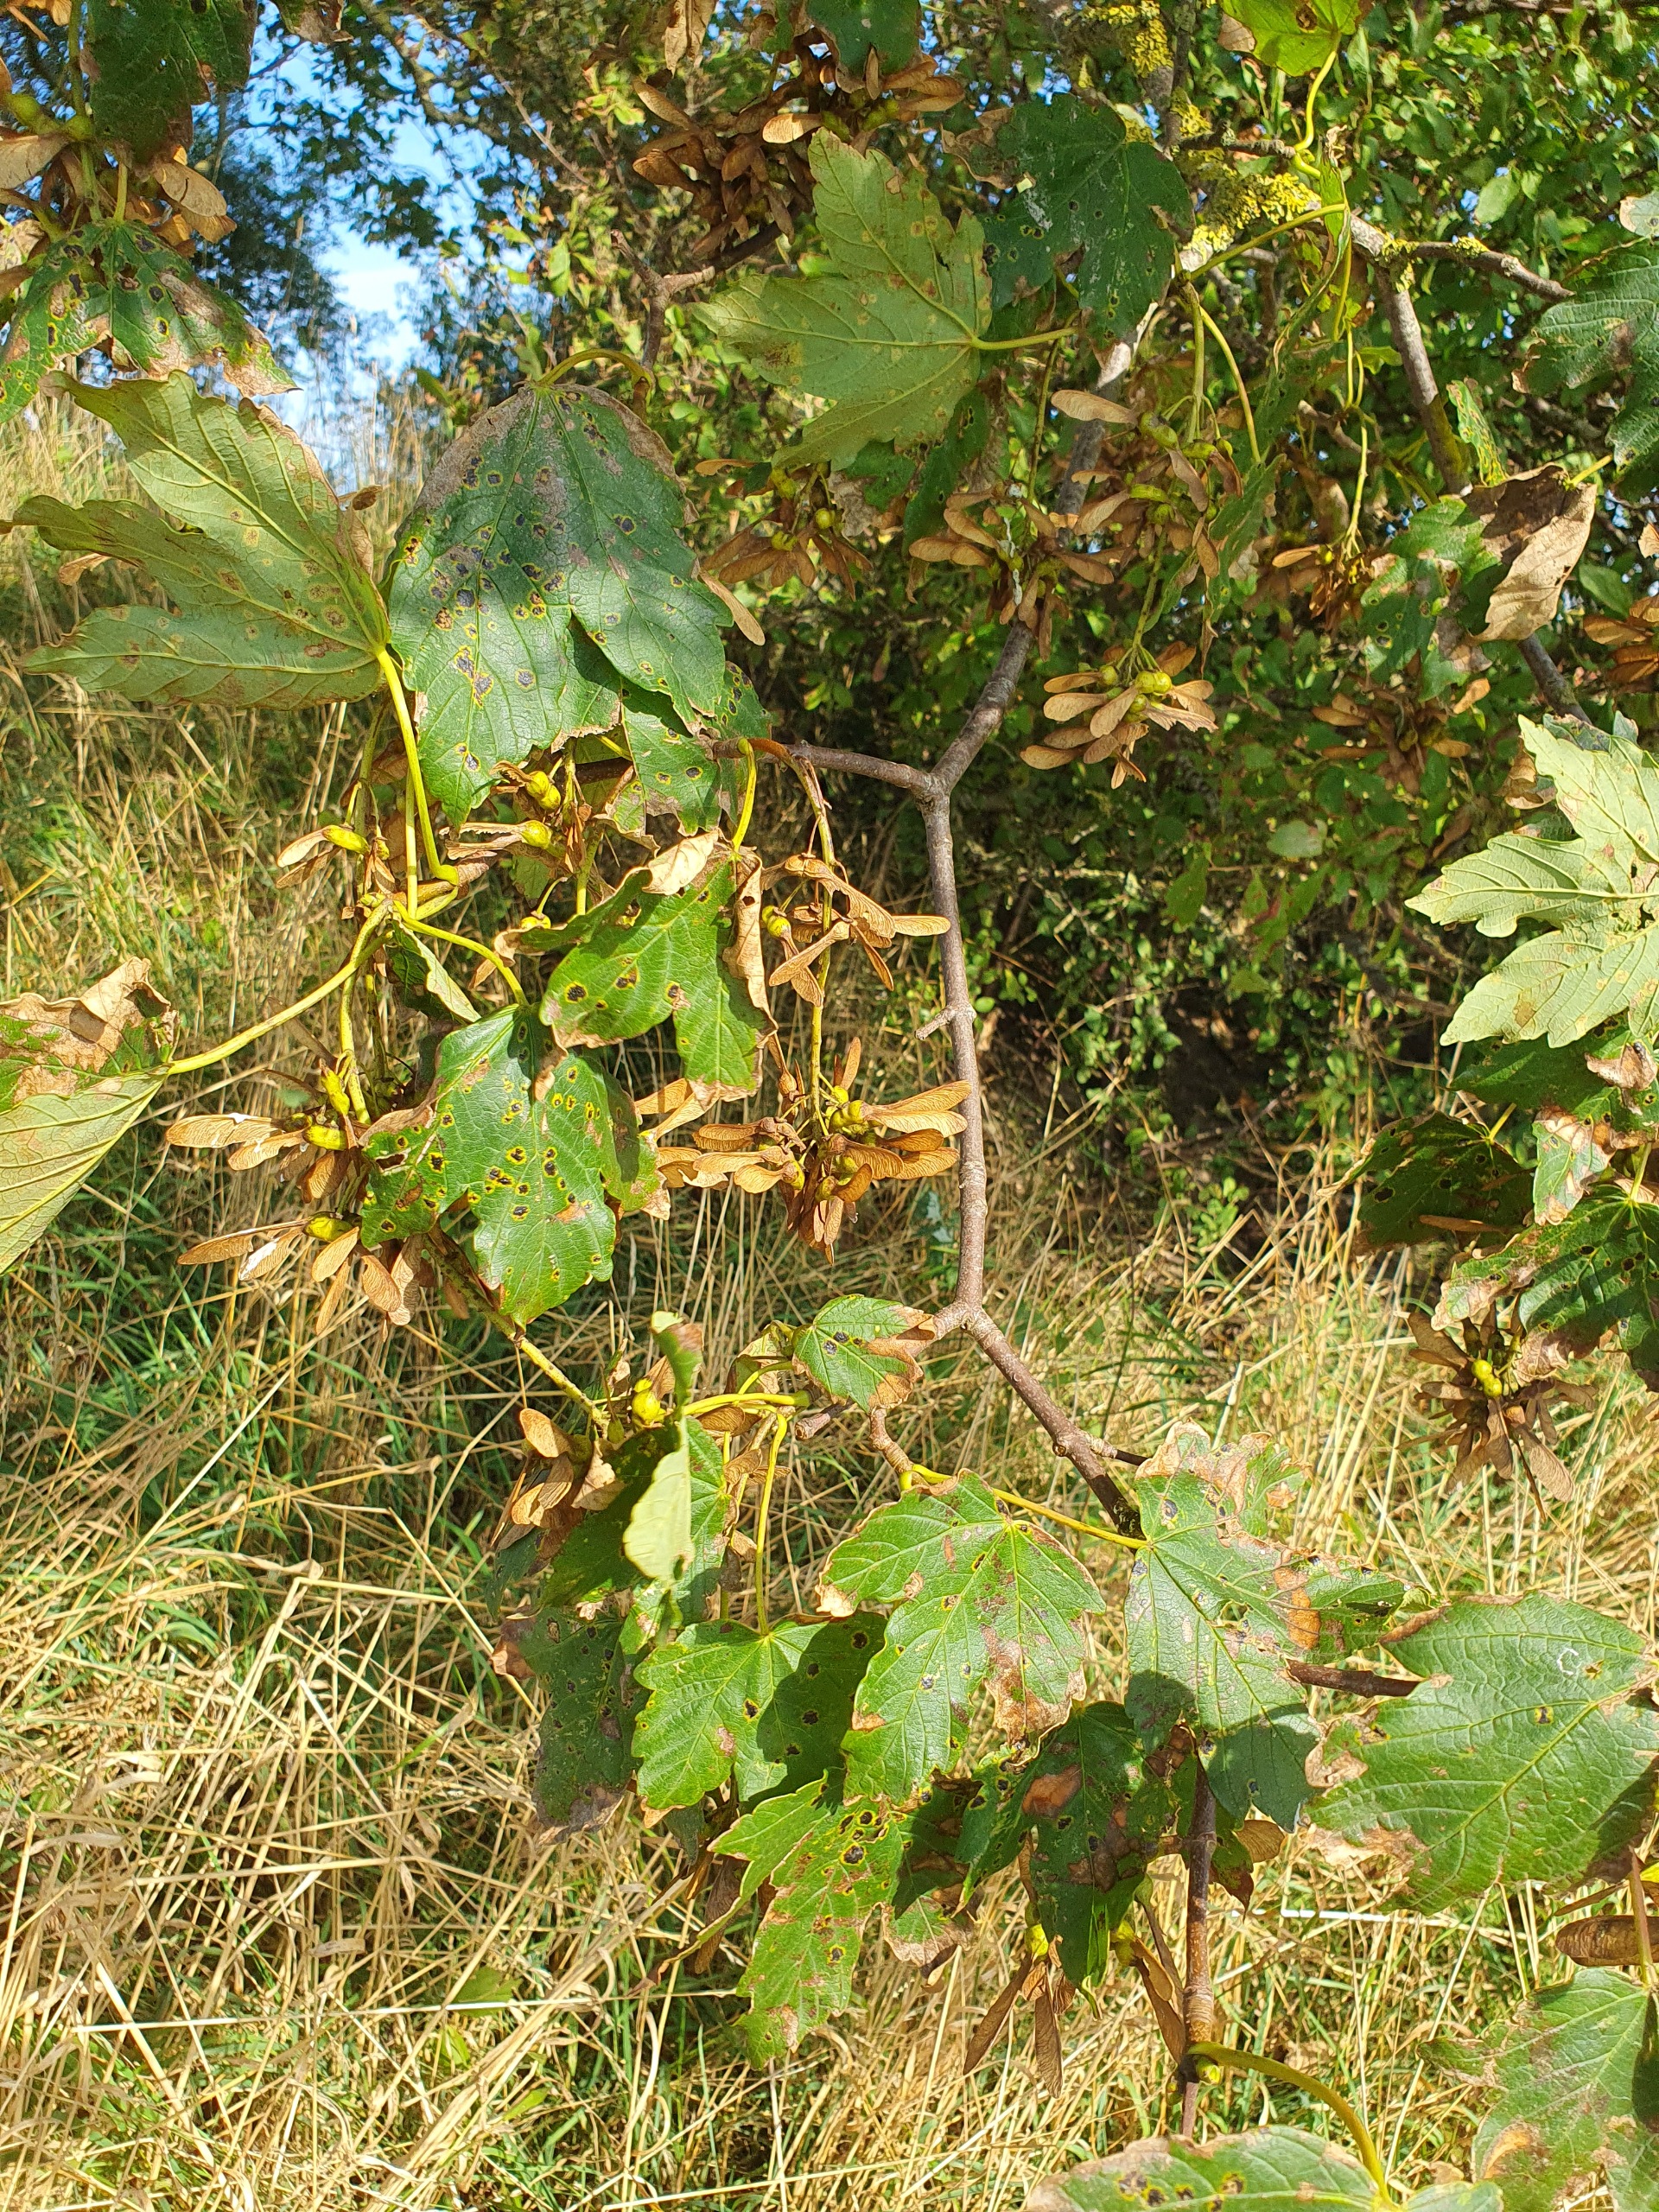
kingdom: Plantae
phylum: Tracheophyta
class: Magnoliopsida
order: Sapindales
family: Sapindaceae
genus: Acer
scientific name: Acer pseudoplatanus
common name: Ahorn
